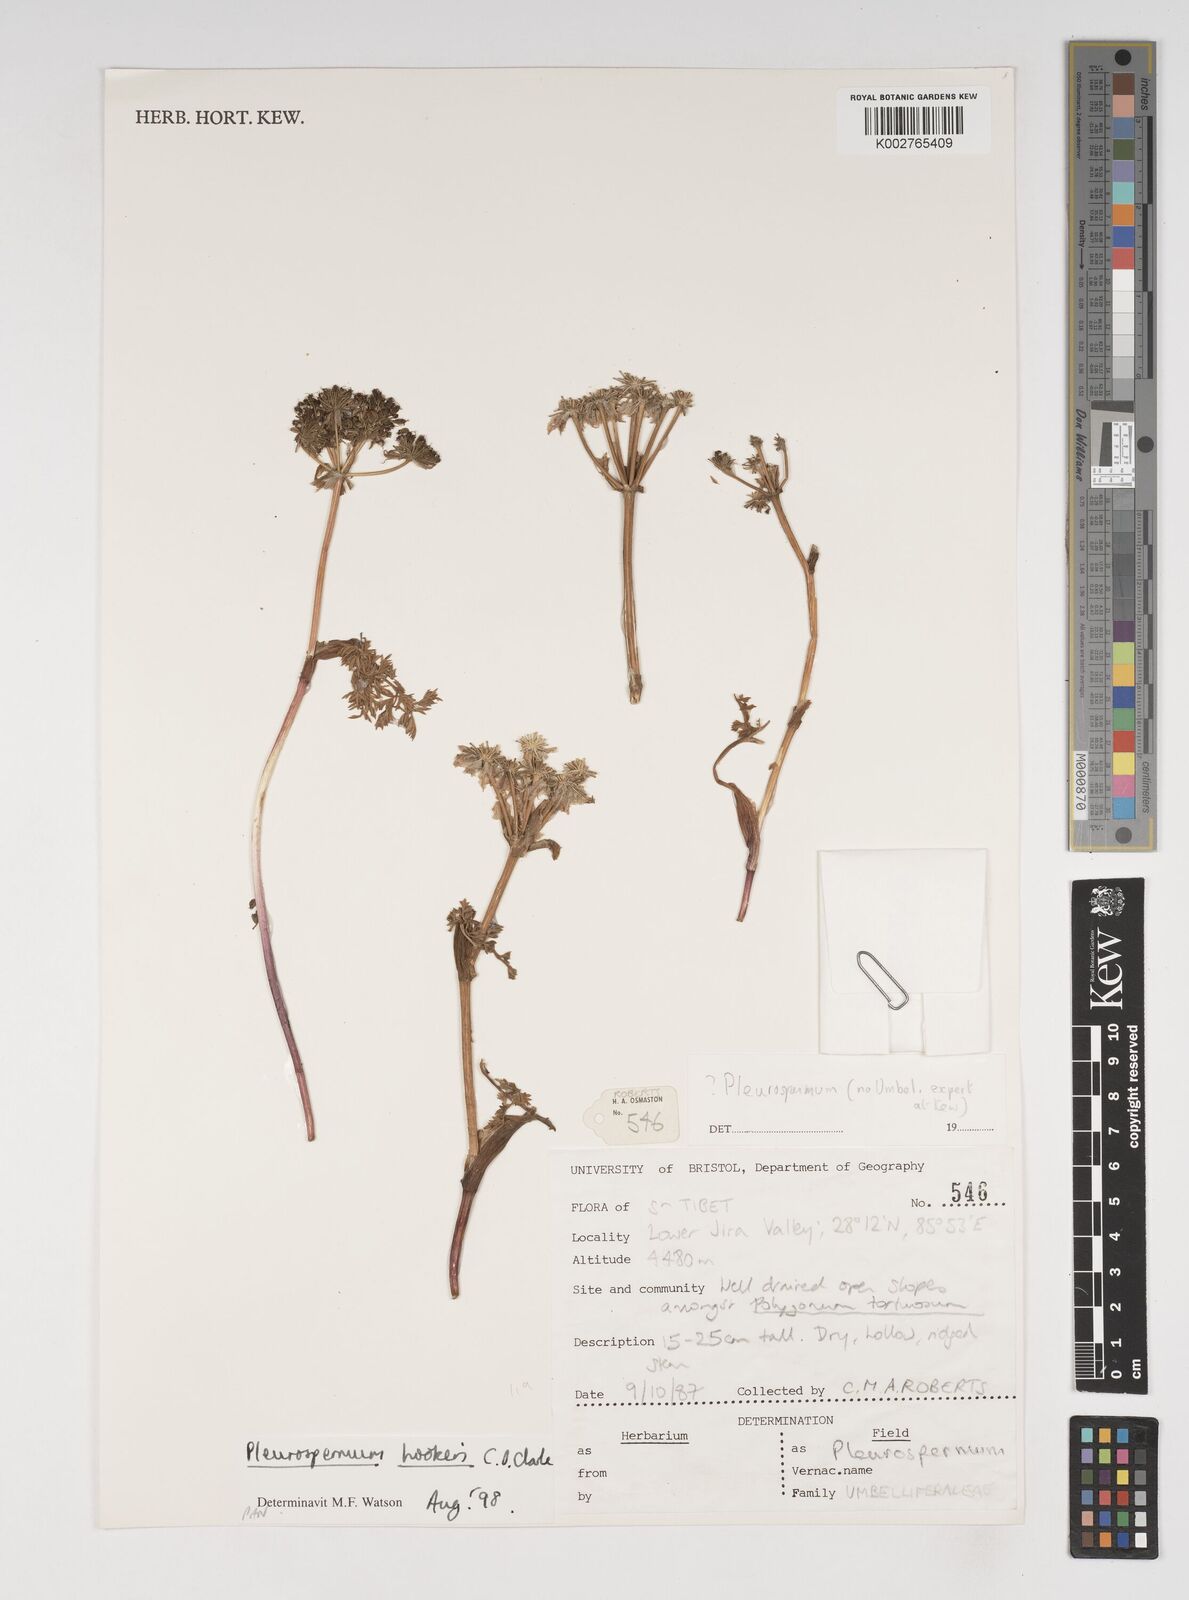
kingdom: Plantae
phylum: Tracheophyta
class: Magnoliopsida
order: Apiales
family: Apiaceae
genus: Pleurospermum
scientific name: Pleurospermum hookeri
